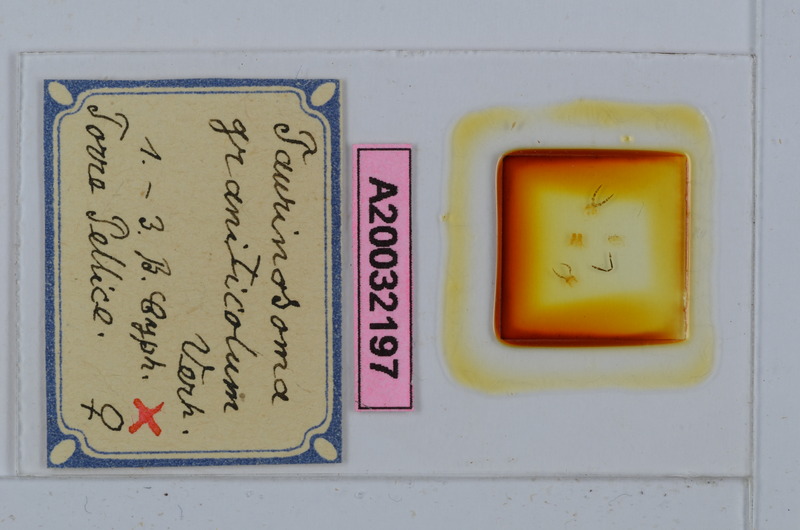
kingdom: Animalia
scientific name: Animalia
